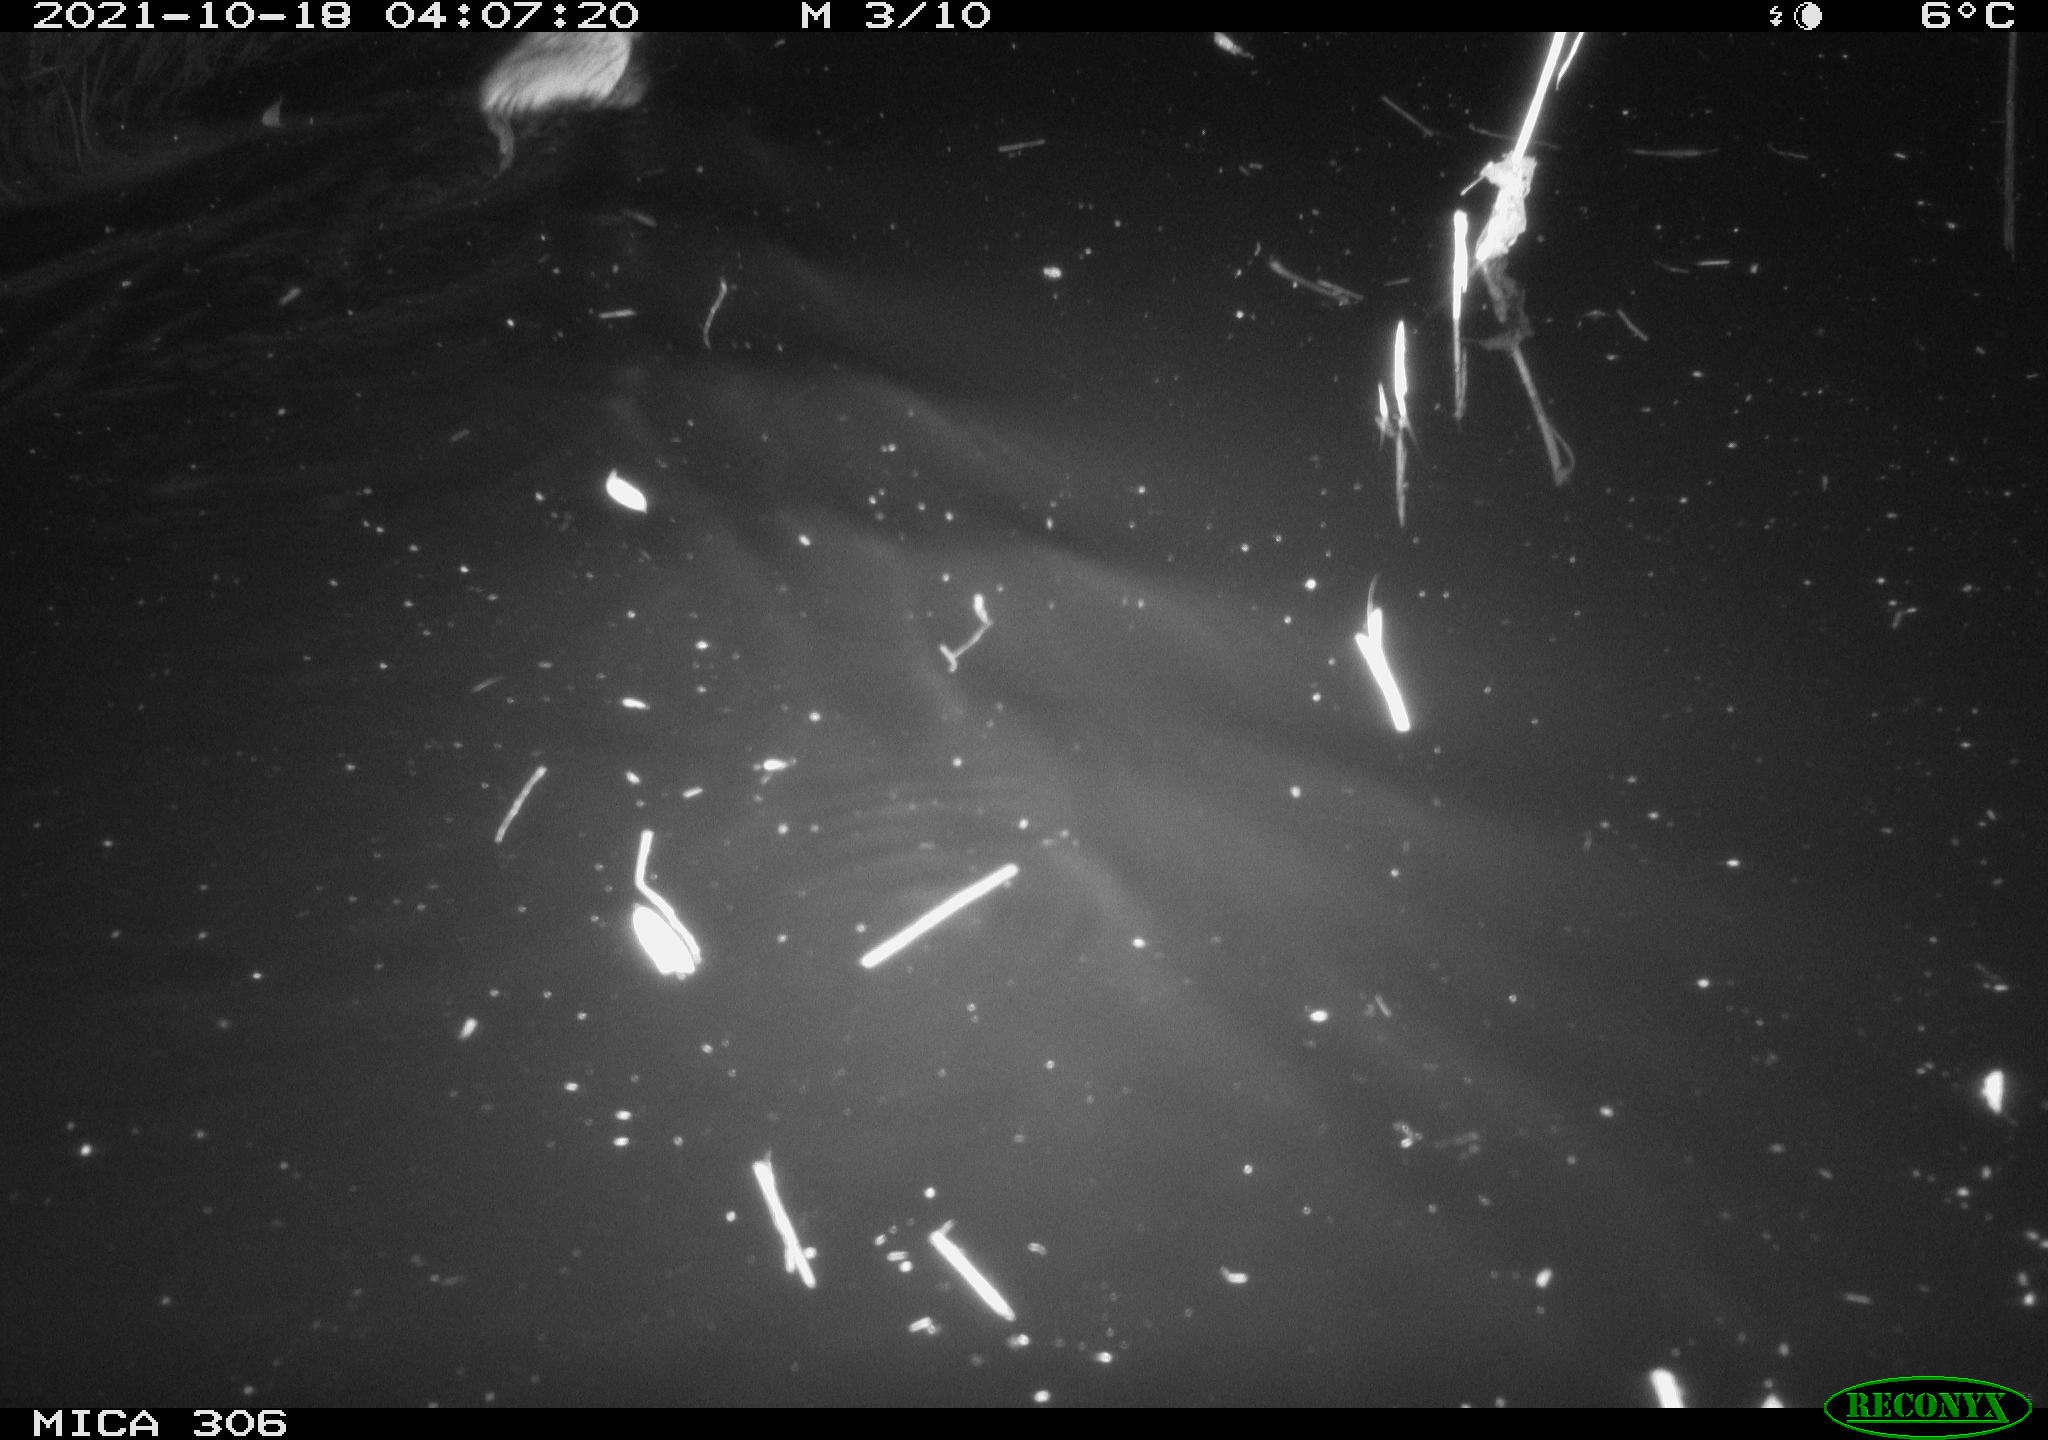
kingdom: Animalia
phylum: Chordata
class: Mammalia
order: Rodentia
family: Cricetidae
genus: Ondatra
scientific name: Ondatra zibethicus
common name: Muskrat
